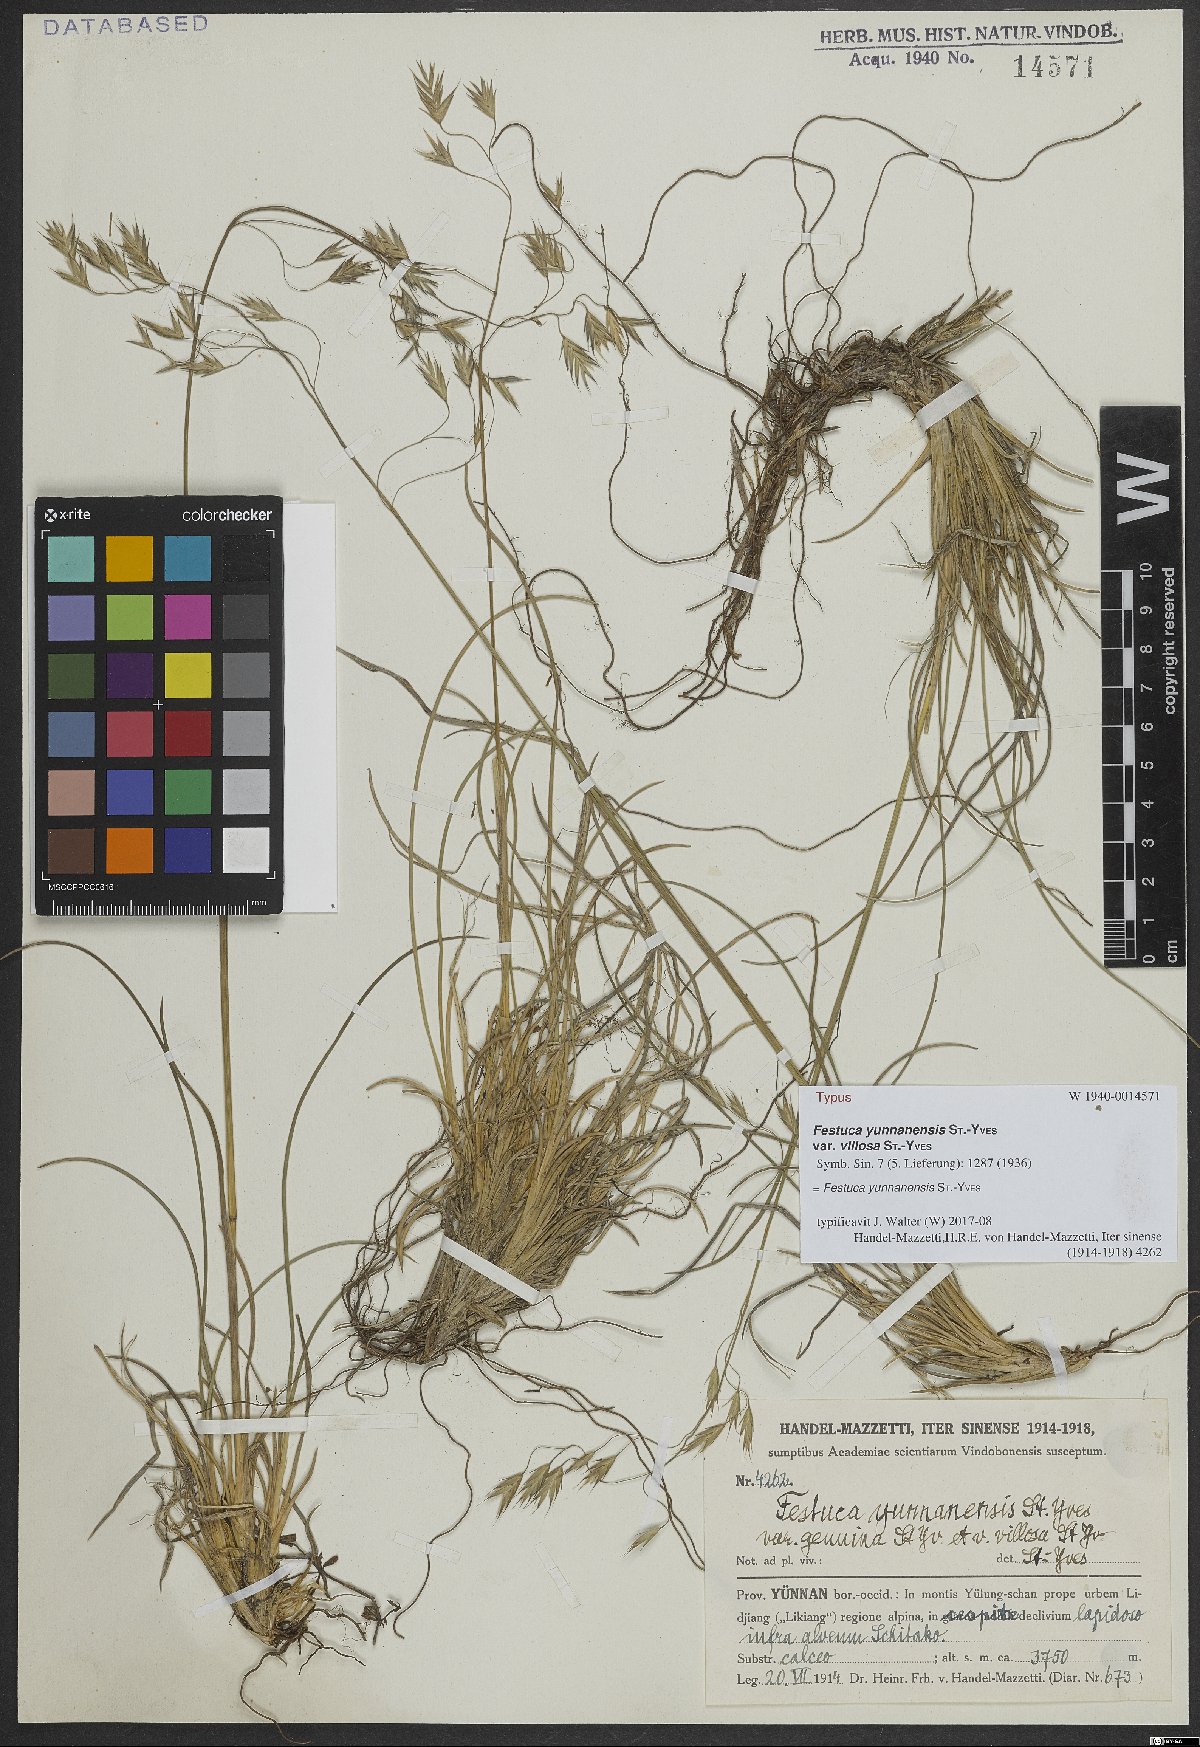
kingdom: Plantae
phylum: Tracheophyta
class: Liliopsida
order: Poales
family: Poaceae
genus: Festuca
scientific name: Festuca yunnanensis
